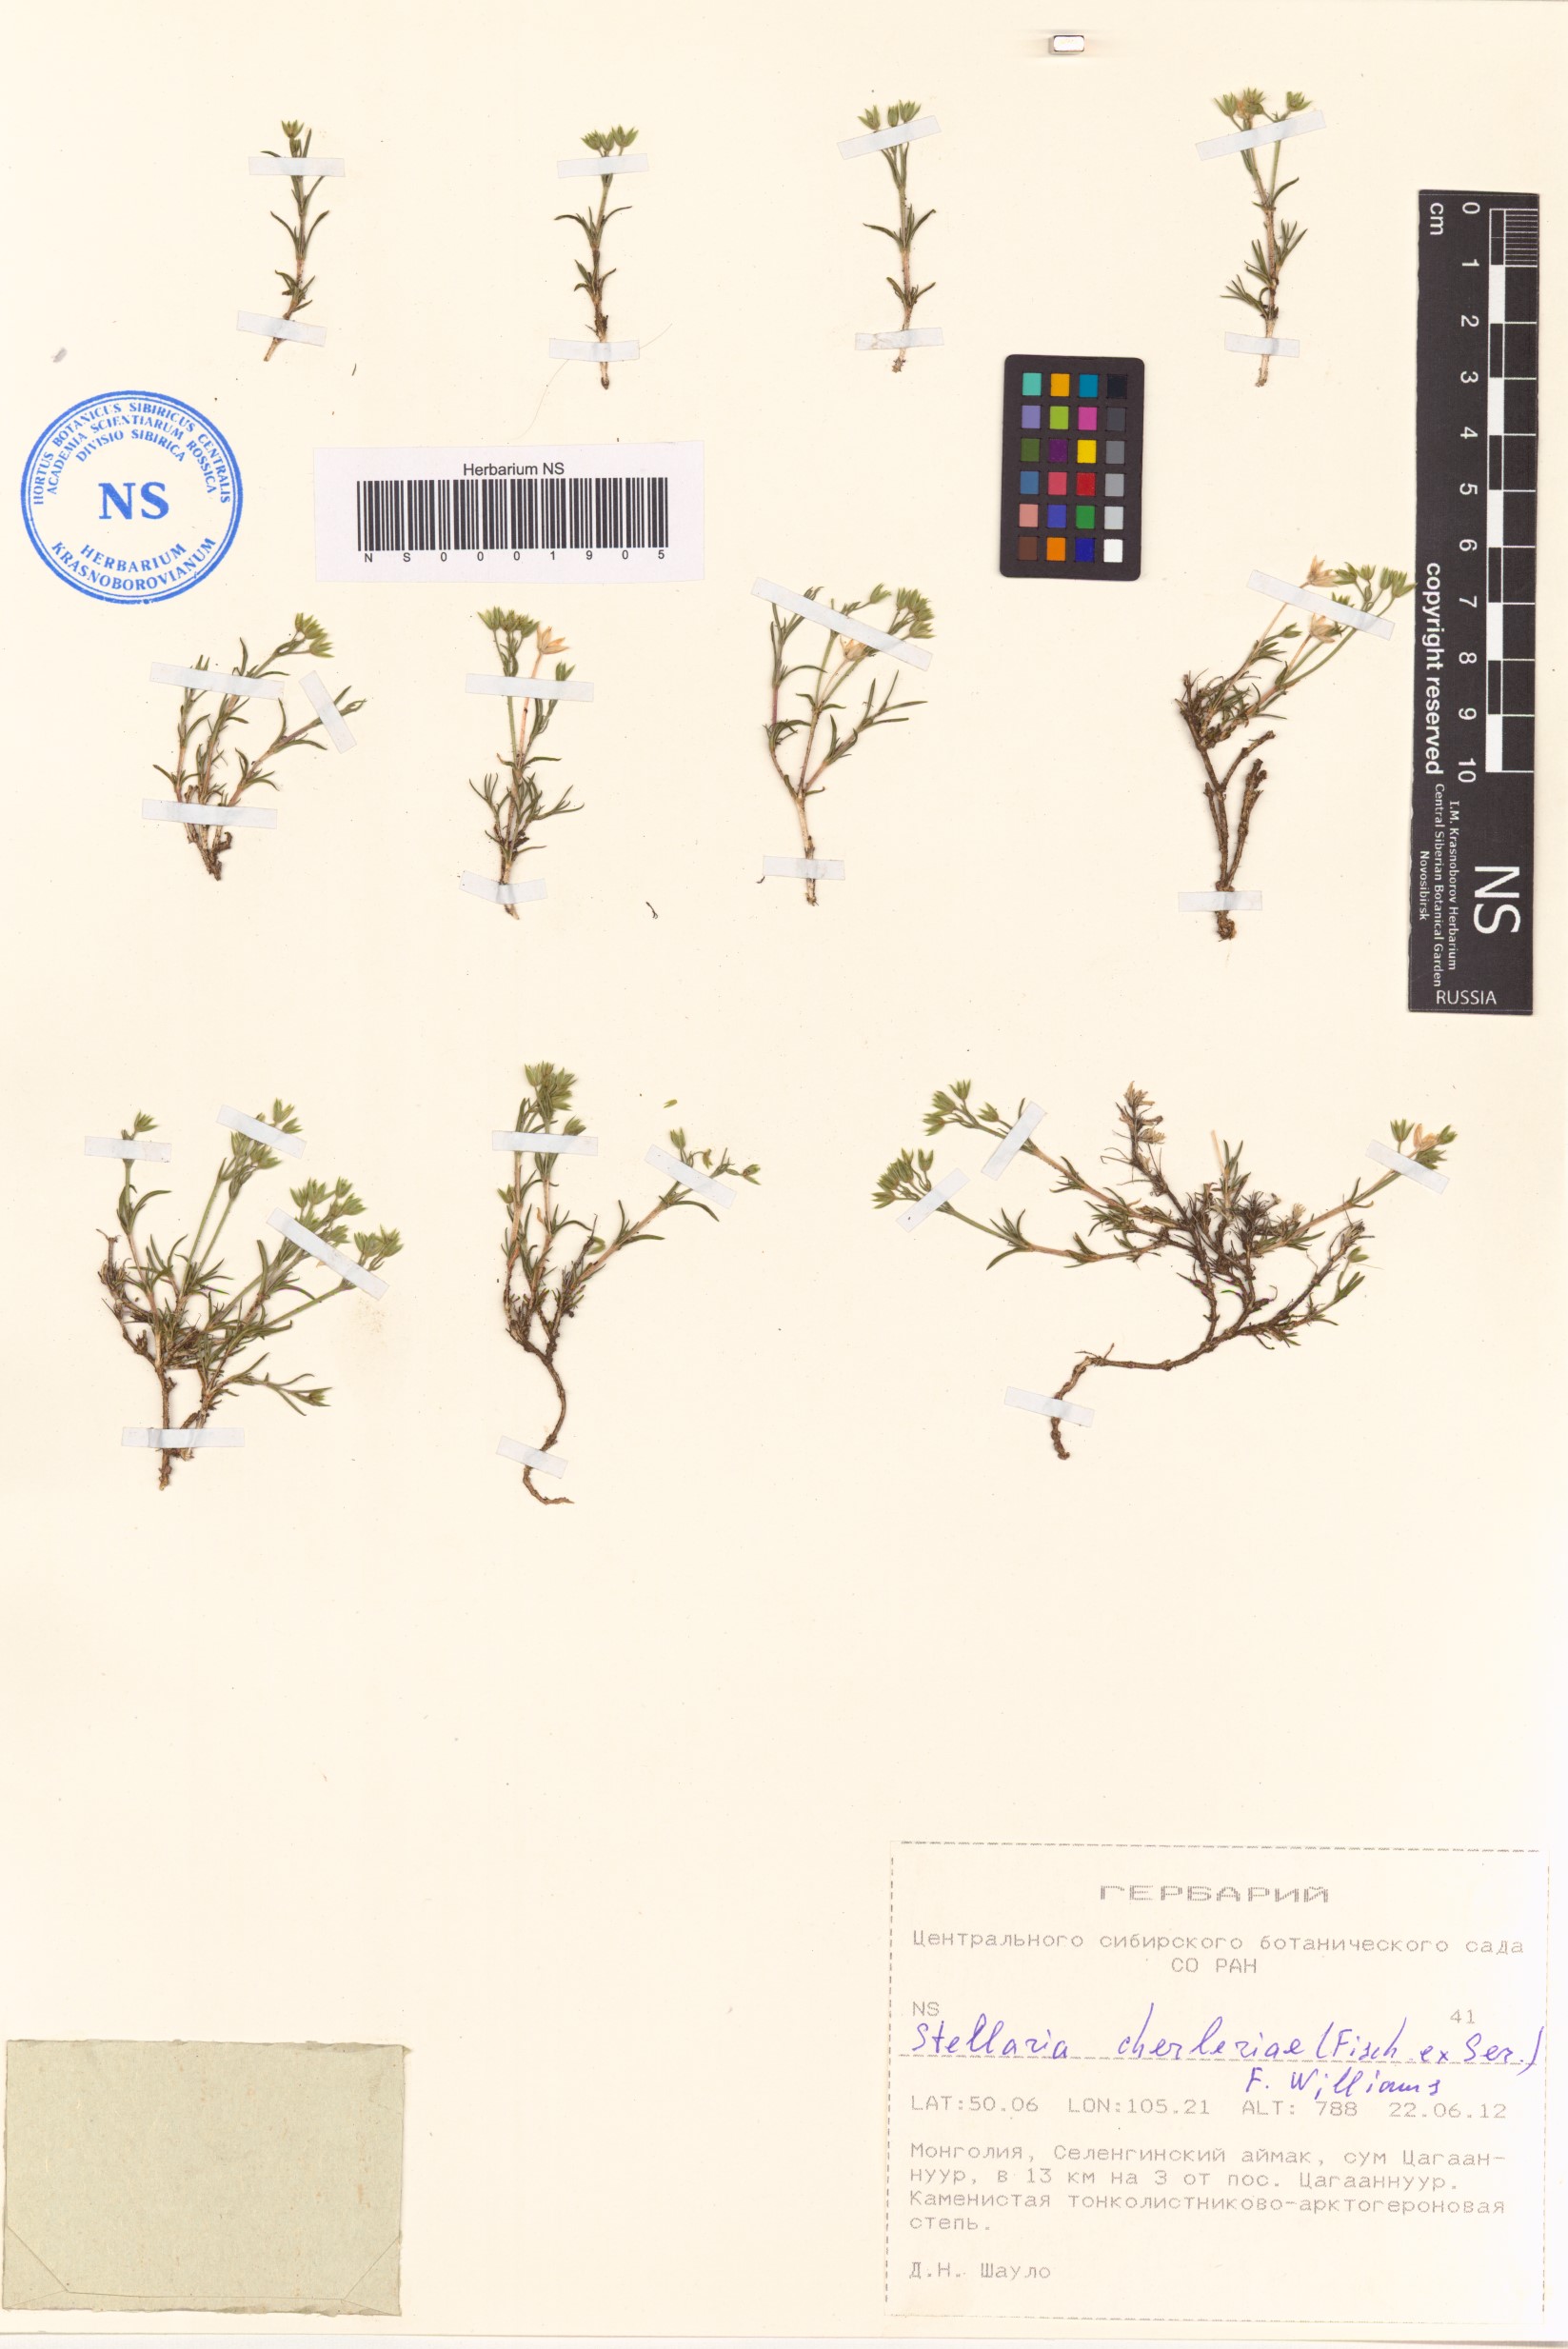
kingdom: Plantae
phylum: Tracheophyta
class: Magnoliopsida
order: Caryophyllales
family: Caryophyllaceae
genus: Adenonema
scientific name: Adenonema cherleriae
